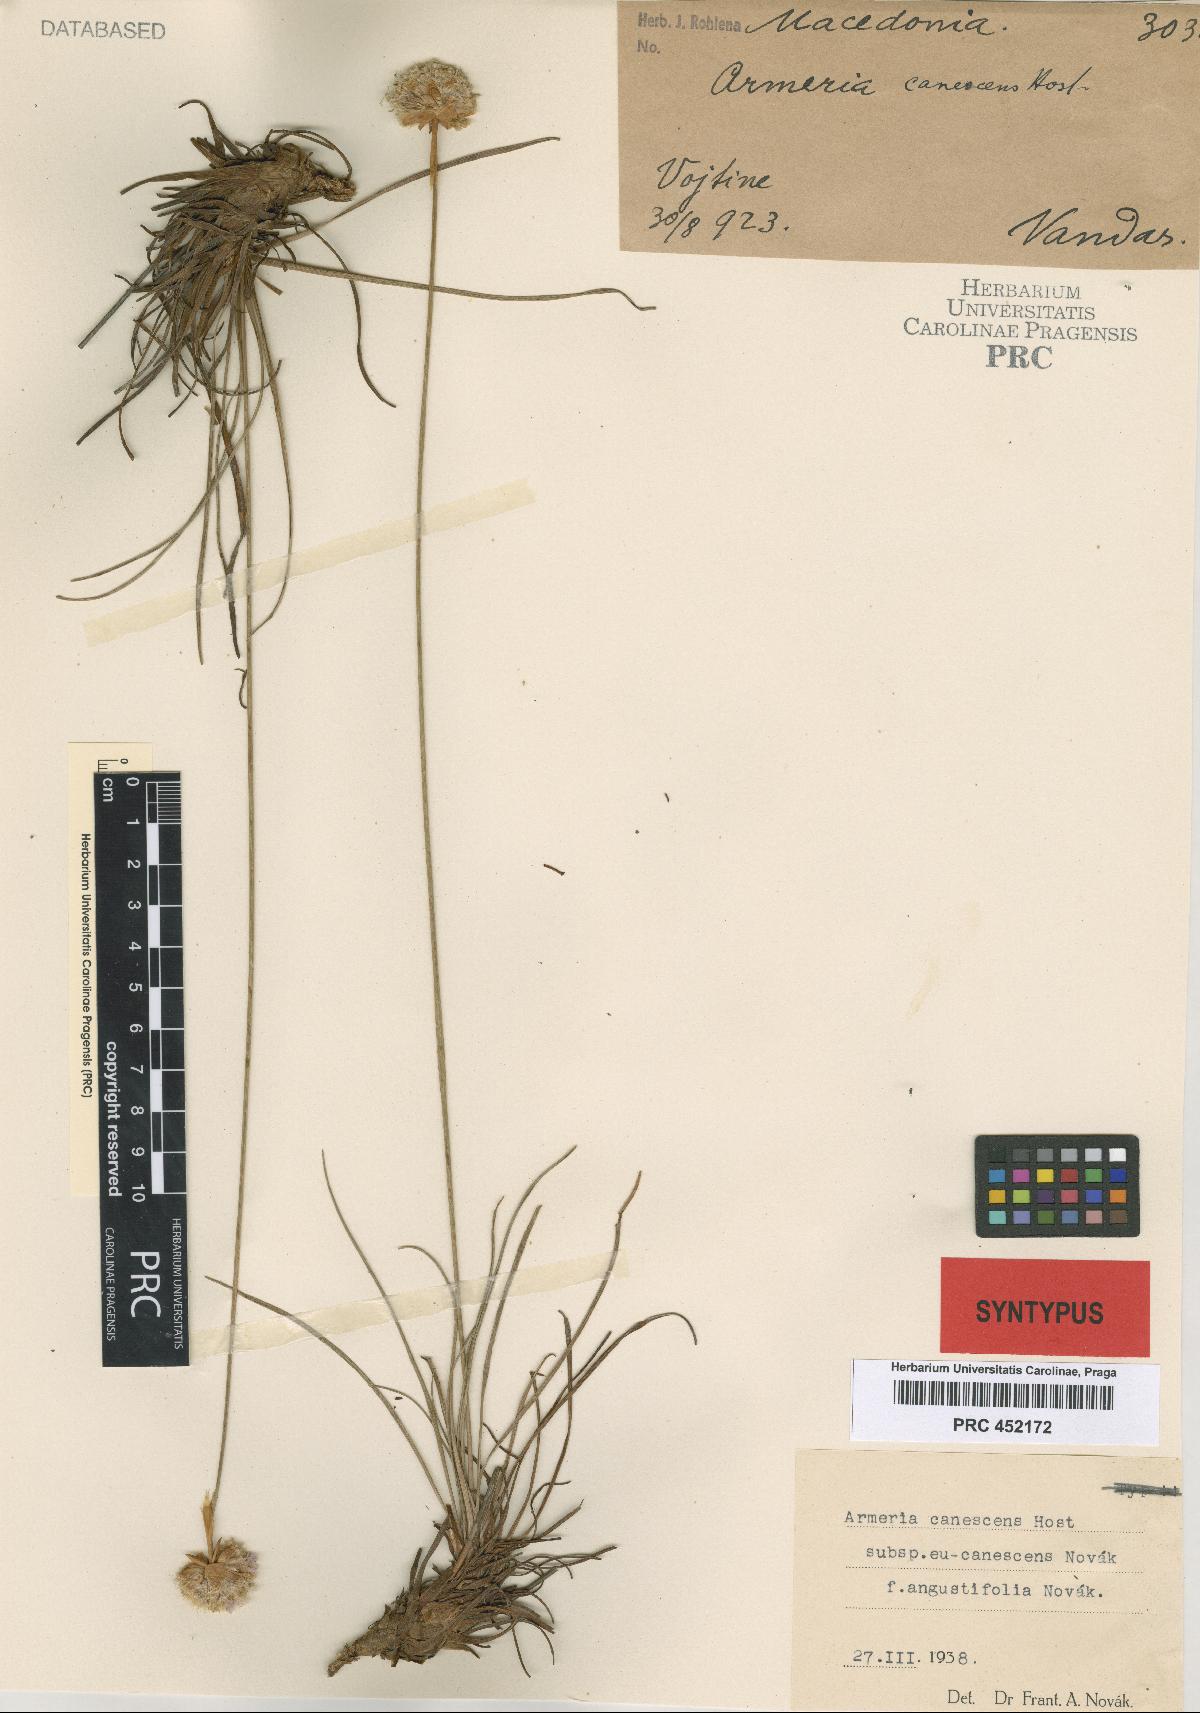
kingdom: Plantae
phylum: Tracheophyta
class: Magnoliopsida
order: Caryophyllales
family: Plumbaginaceae
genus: Armeria
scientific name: Armeria canescens
